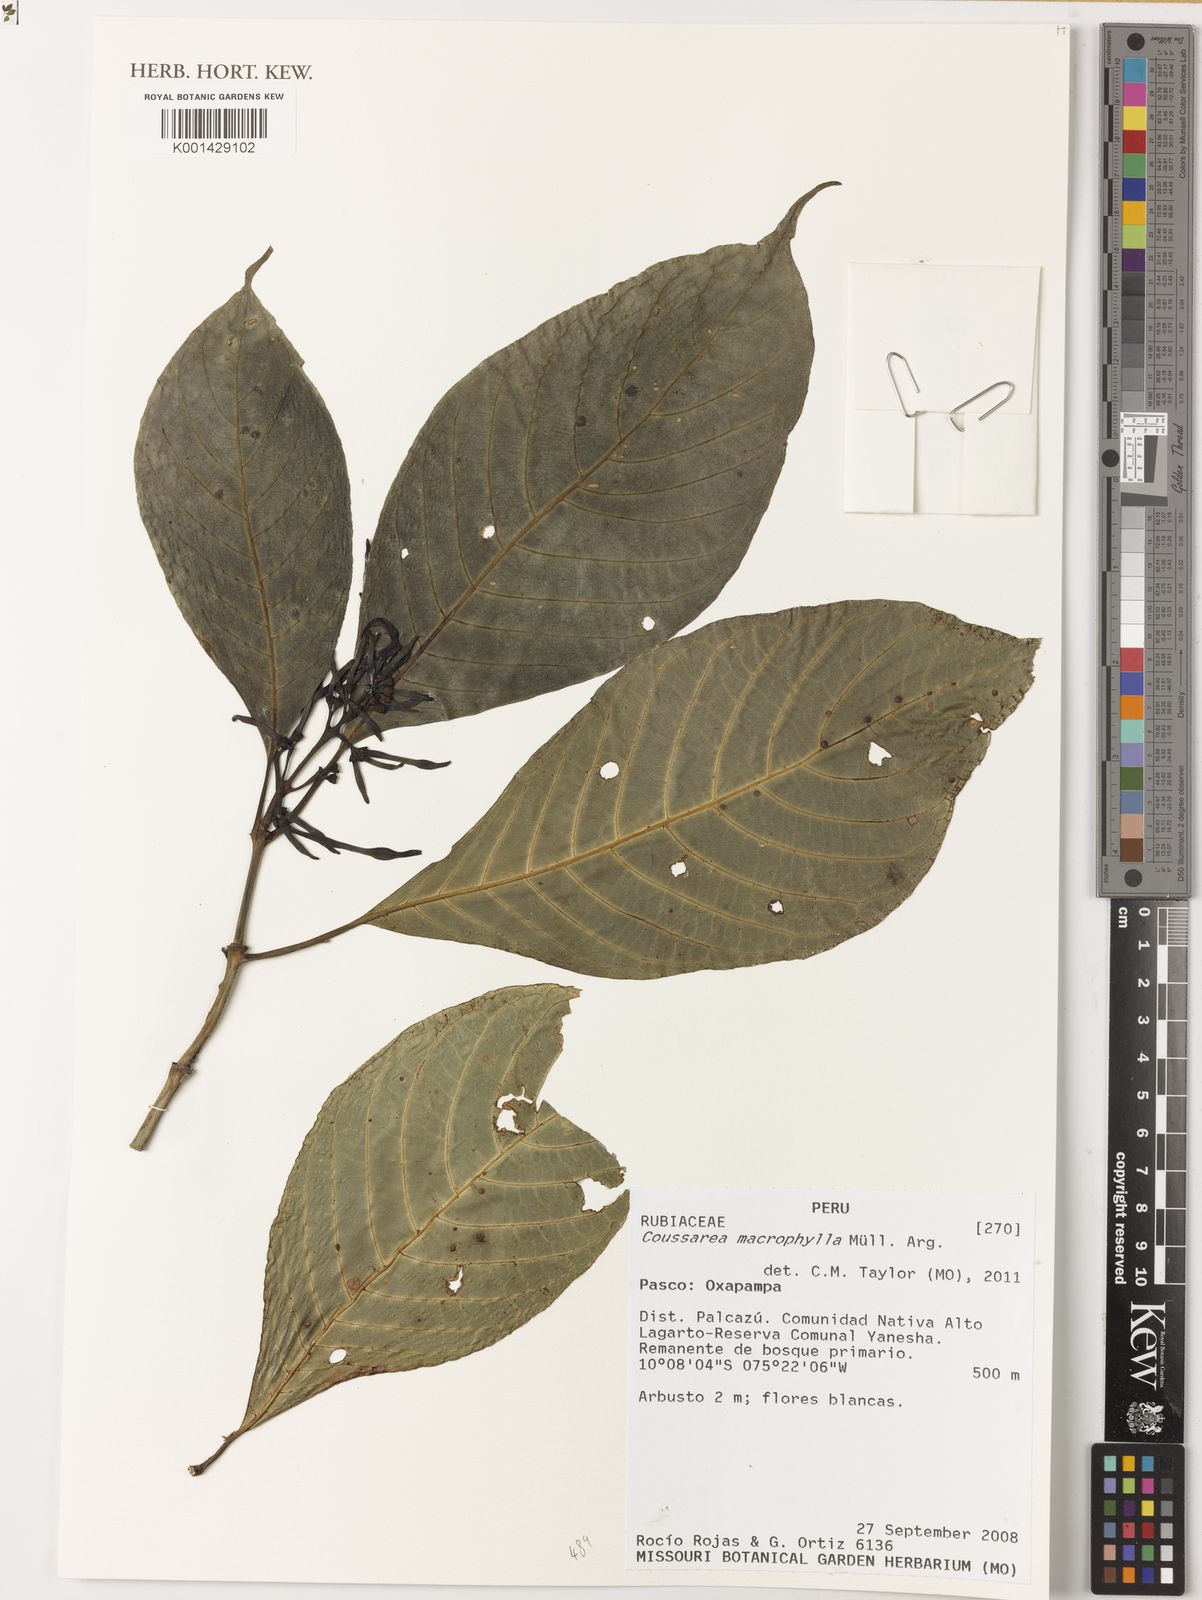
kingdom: Plantae
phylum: Tracheophyta
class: Magnoliopsida
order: Gentianales
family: Rubiaceae
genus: Coussarea
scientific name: Coussarea
